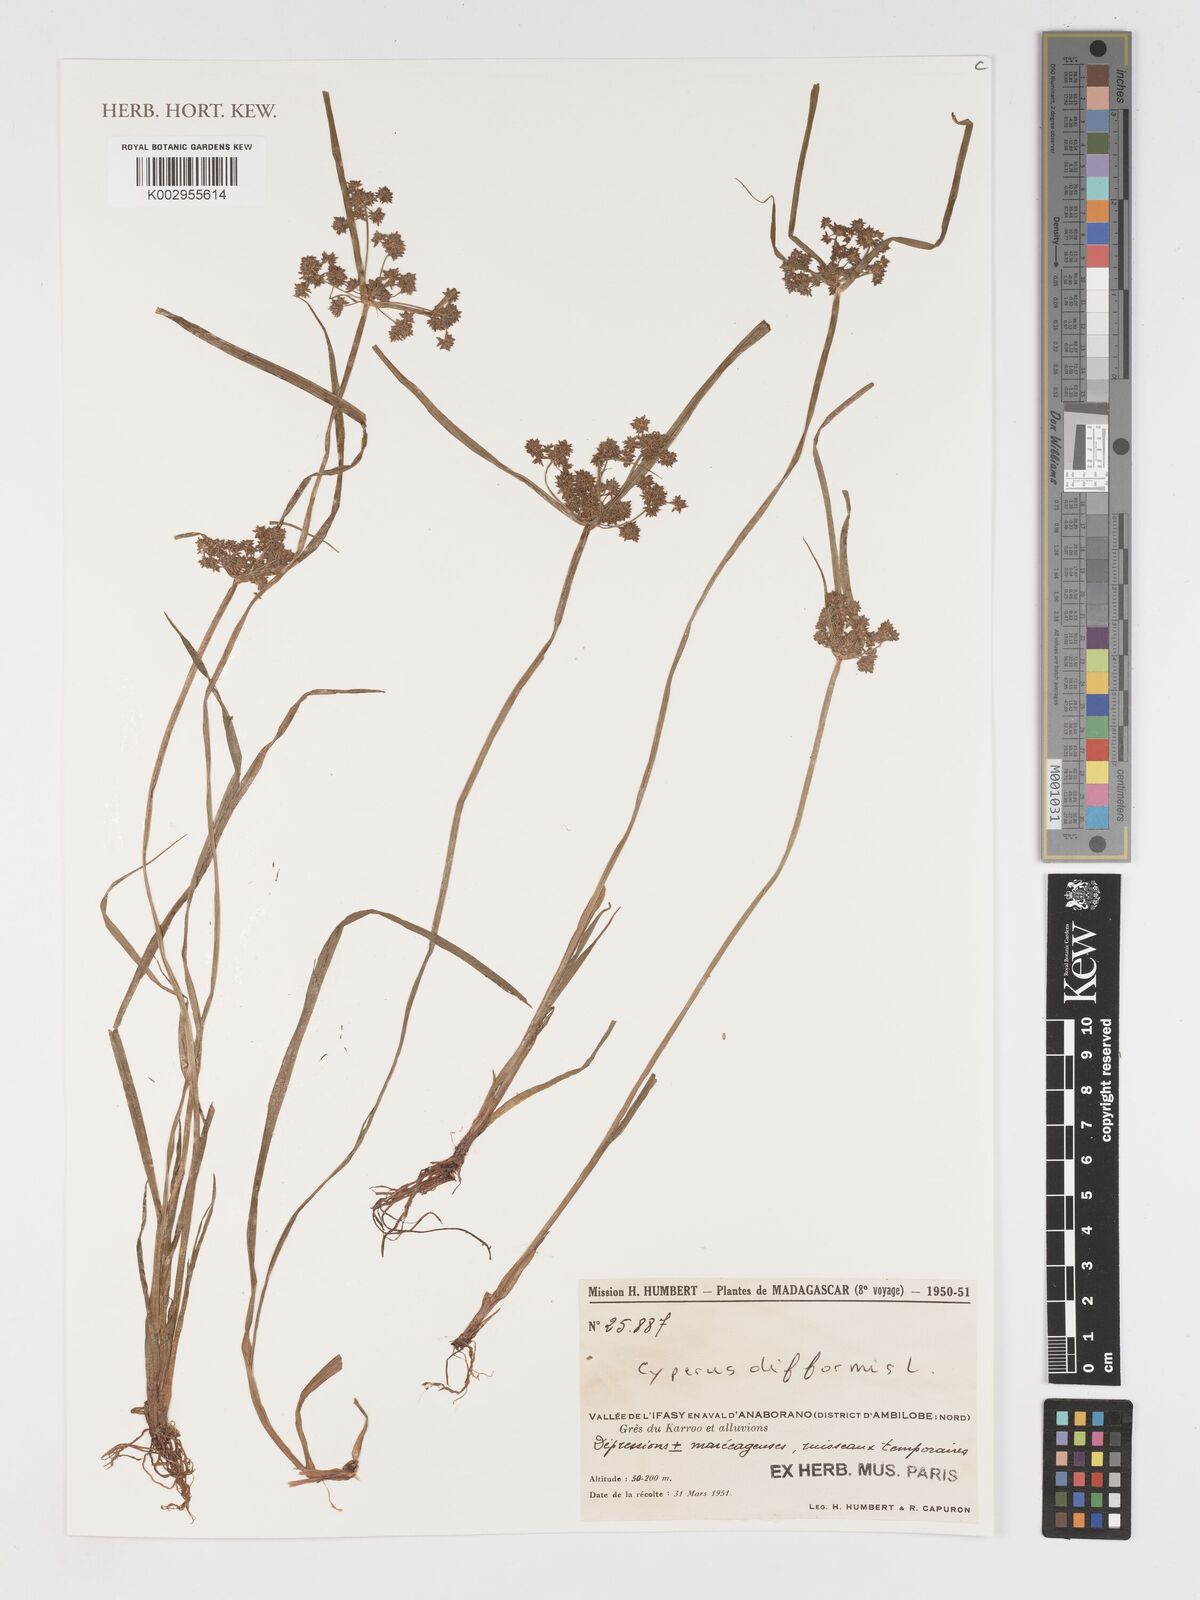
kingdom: Plantae
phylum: Tracheophyta
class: Liliopsida
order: Poales
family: Cyperaceae
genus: Cyperus
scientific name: Cyperus difformis
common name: Variable flatsedge
